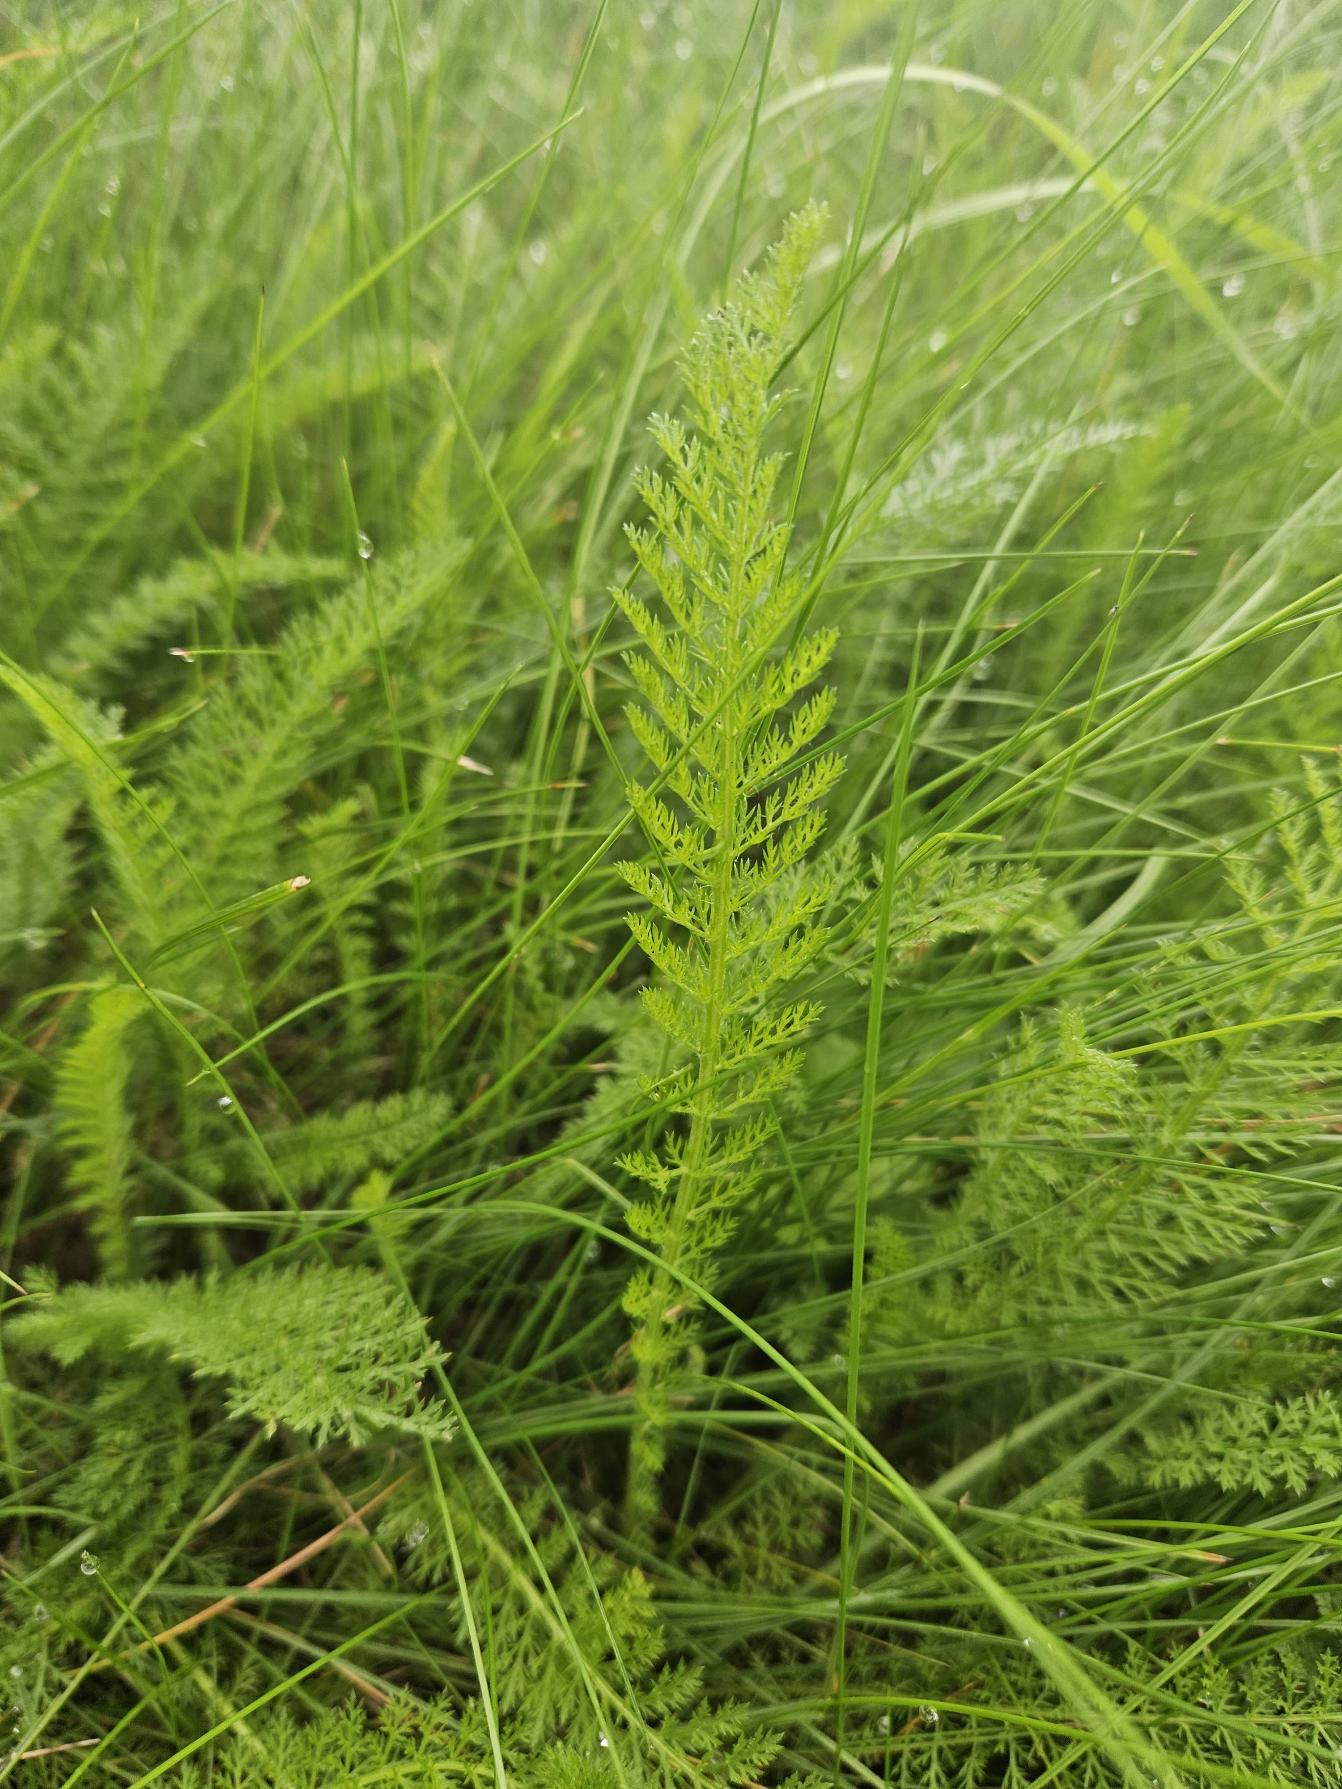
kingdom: Plantae
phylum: Tracheophyta
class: Magnoliopsida
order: Asterales
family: Asteraceae
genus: Achillea
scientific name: Achillea millefolium
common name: Almindelig røllike
